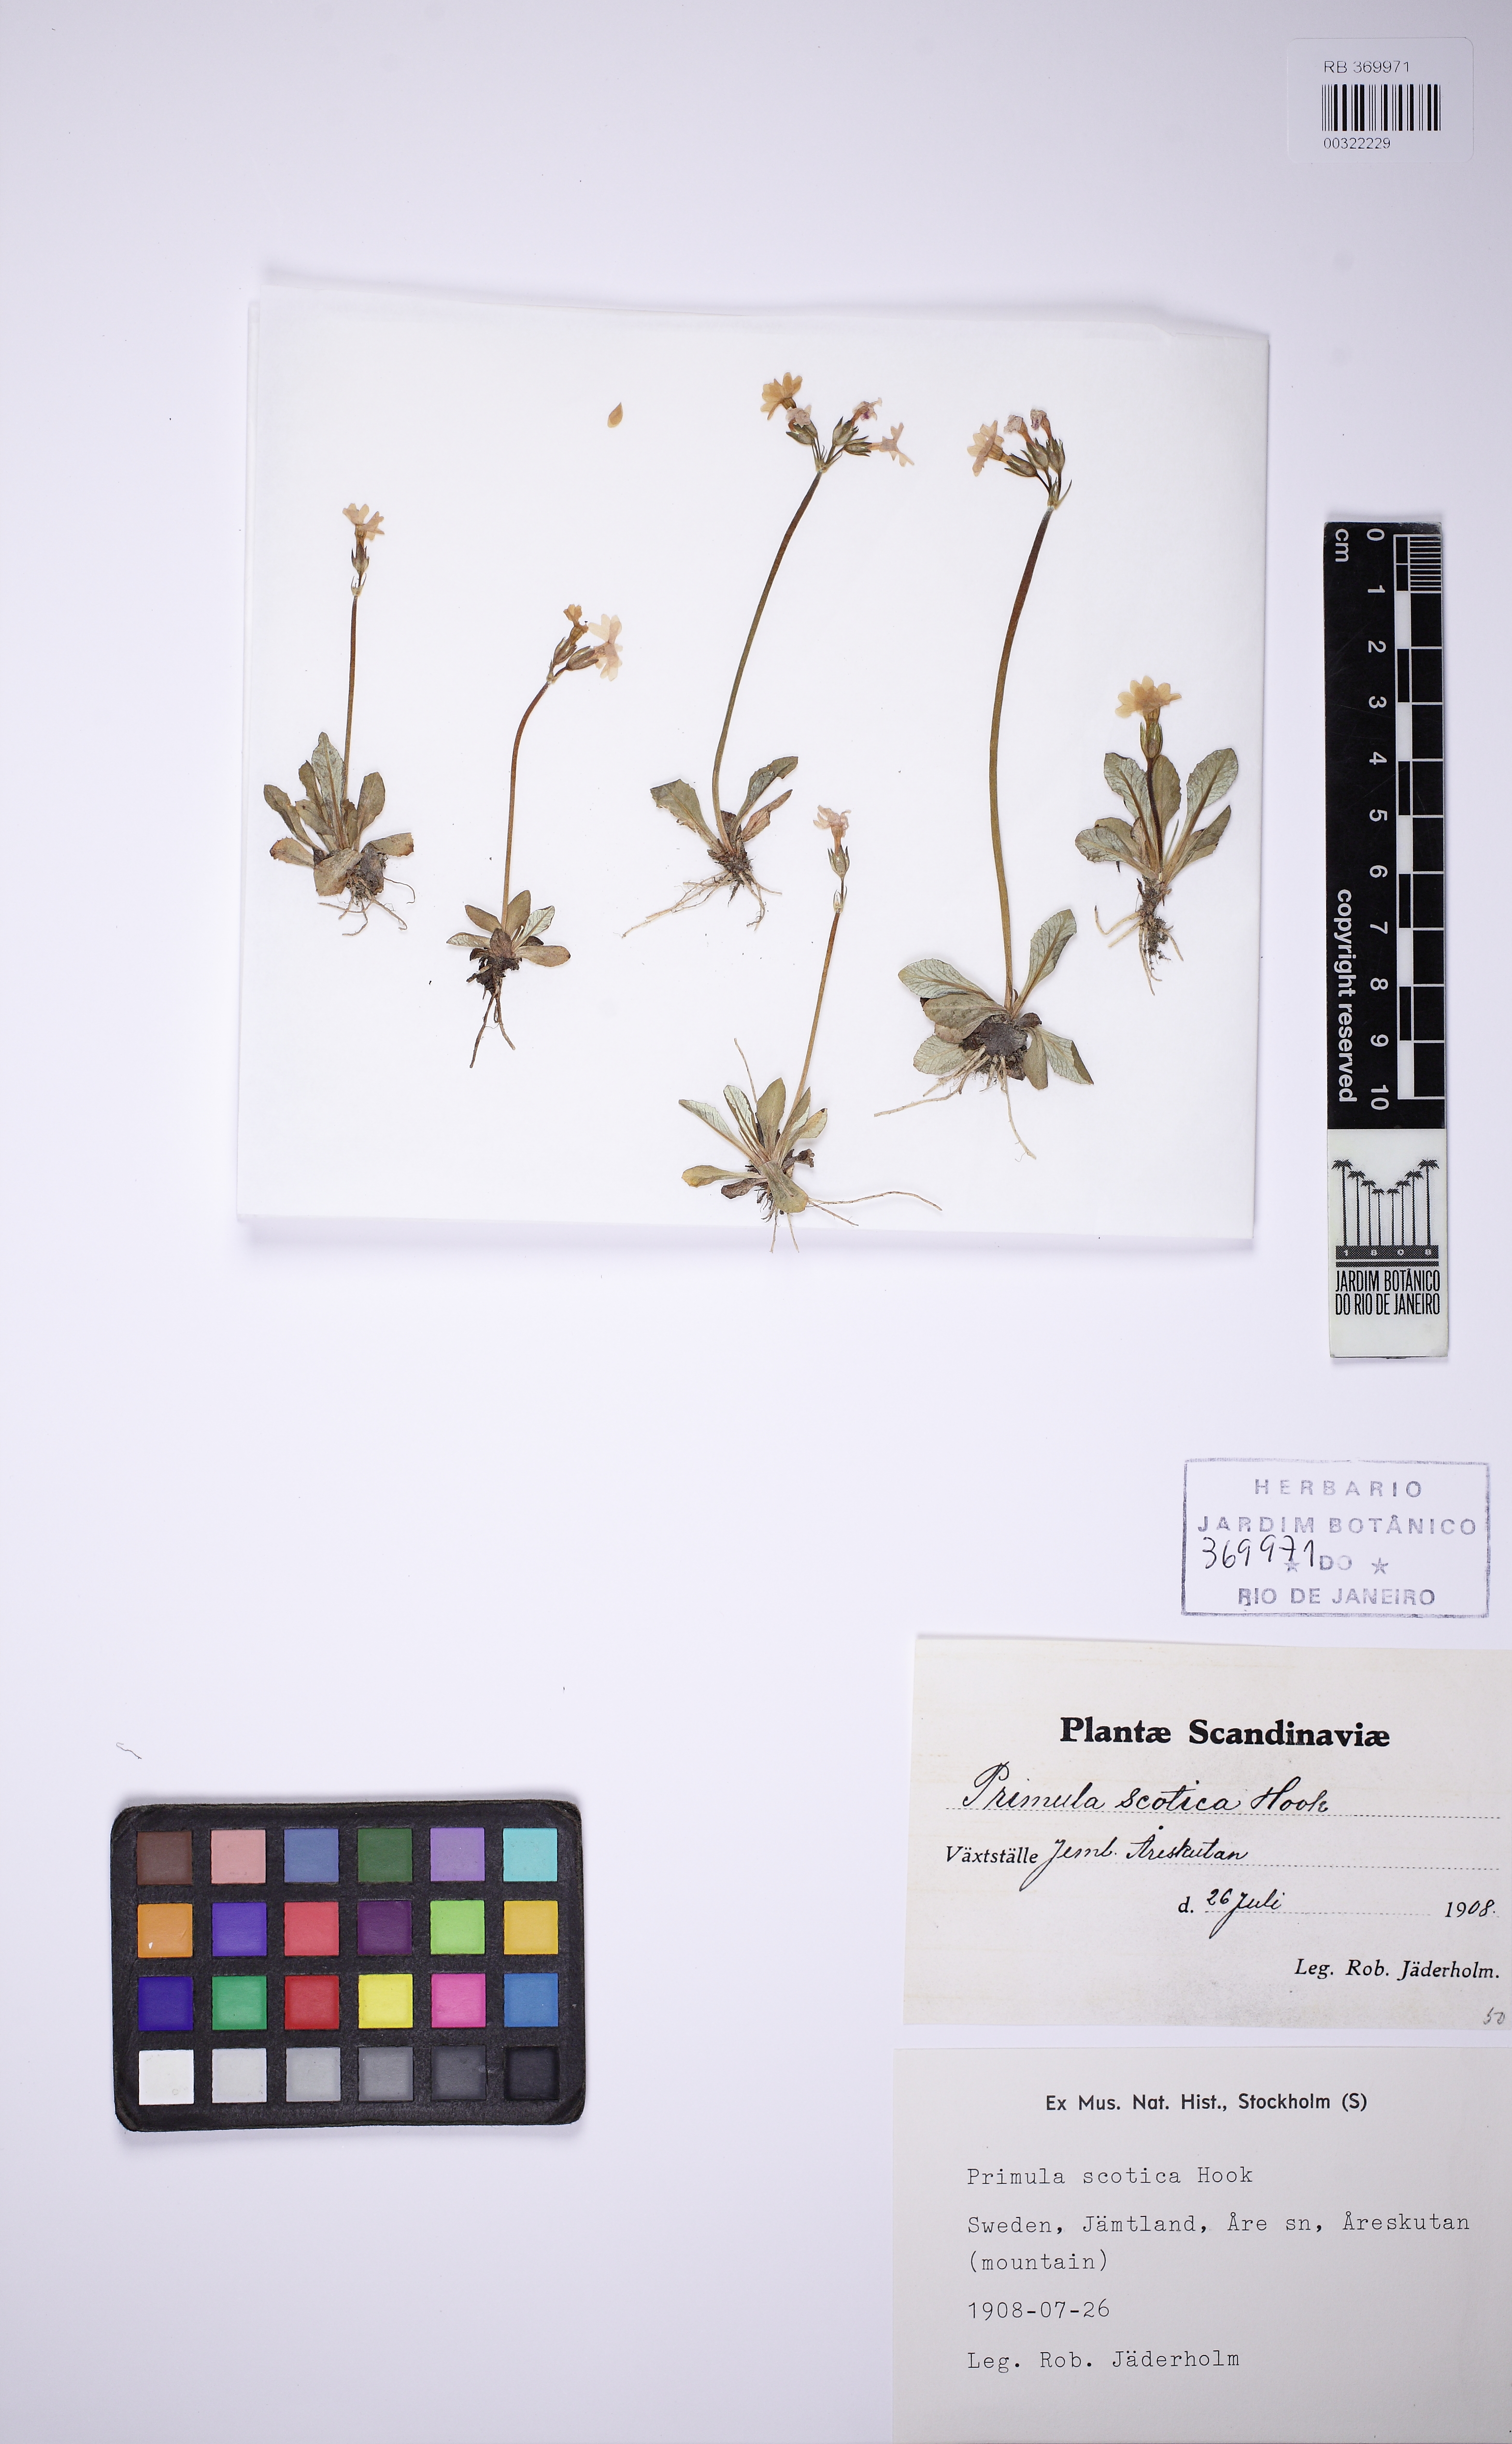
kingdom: Plantae
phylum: Tracheophyta
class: Magnoliopsida
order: Ericales
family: Primulaceae
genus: Primula
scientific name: Primula scotica
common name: Scottish primrose
